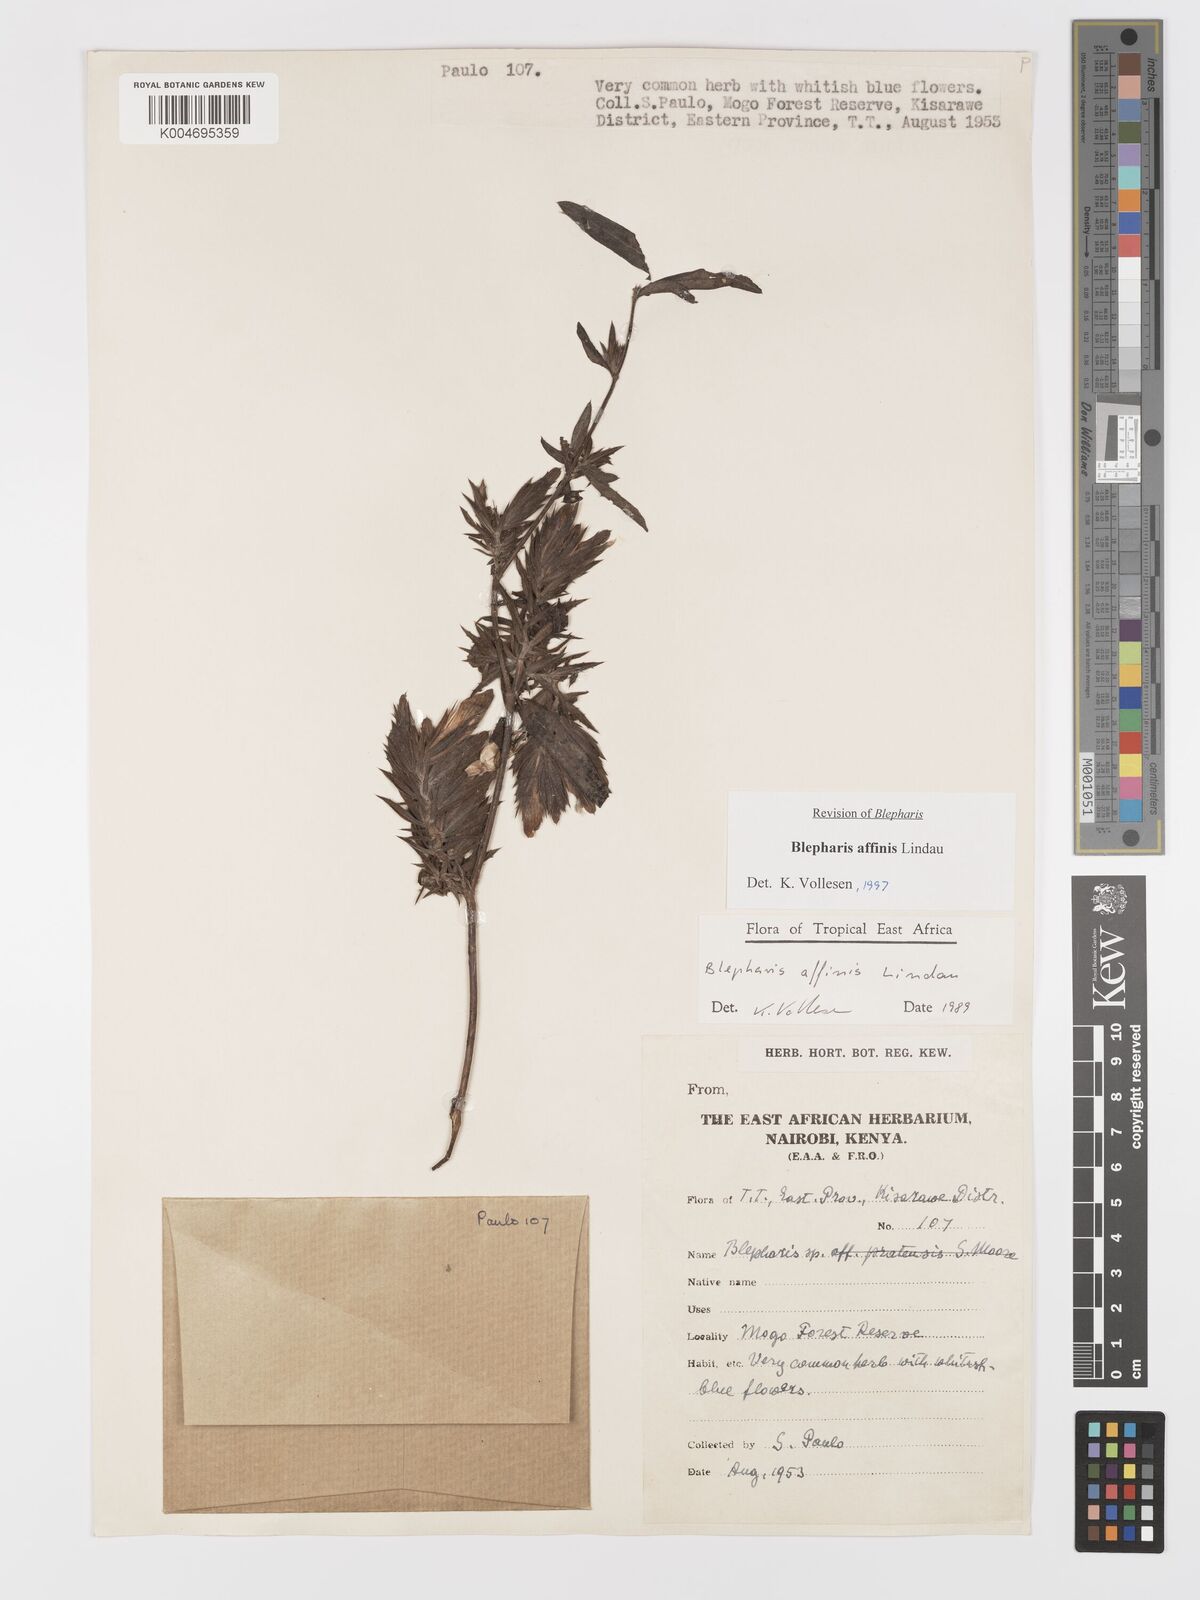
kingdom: Plantae
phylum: Tracheophyta
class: Magnoliopsida
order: Lamiales
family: Acanthaceae
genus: Blepharis
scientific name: Blepharis affinis
